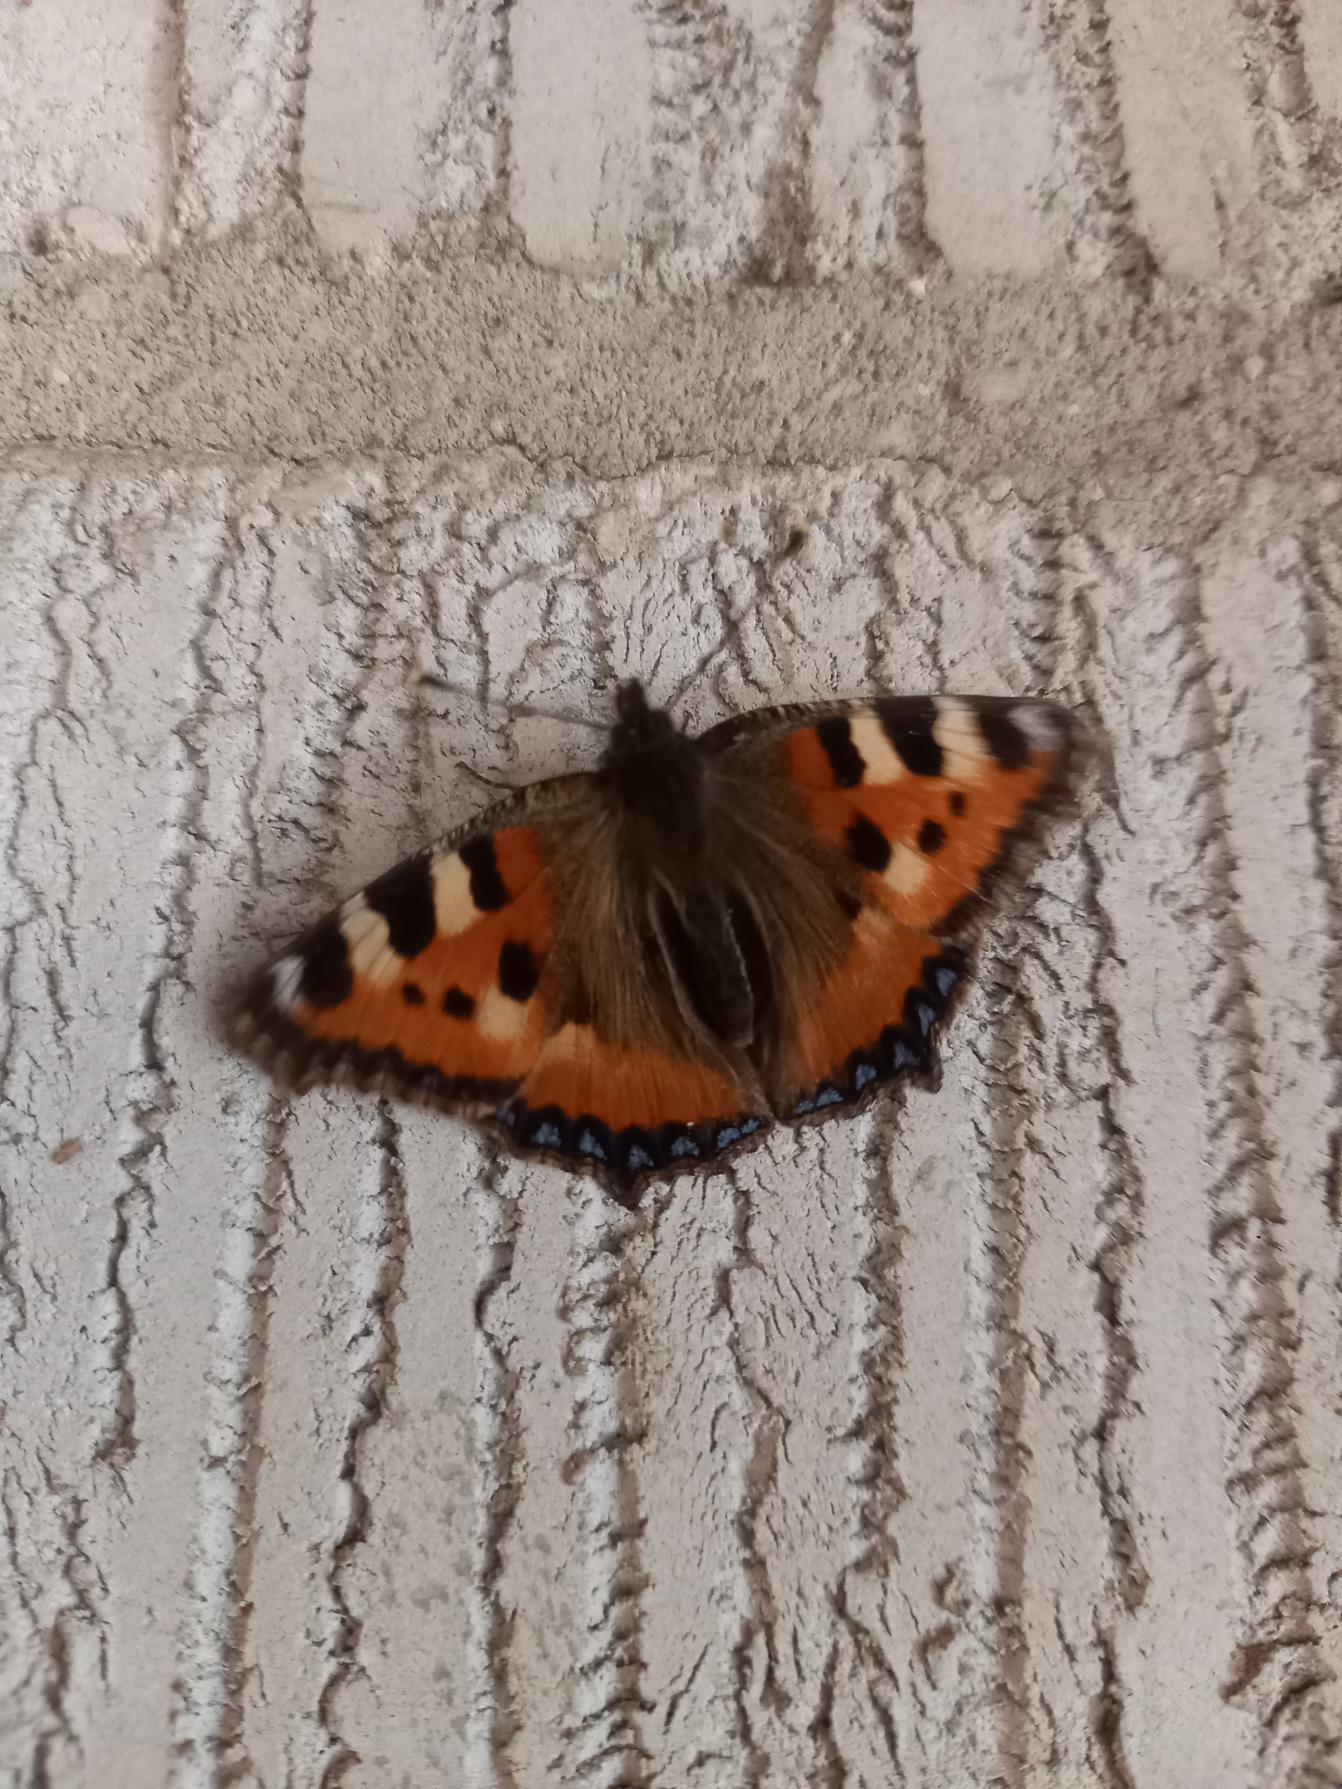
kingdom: Animalia
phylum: Arthropoda
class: Insecta
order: Lepidoptera
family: Nymphalidae
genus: Aglais
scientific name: Aglais urticae
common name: Nældens takvinge
